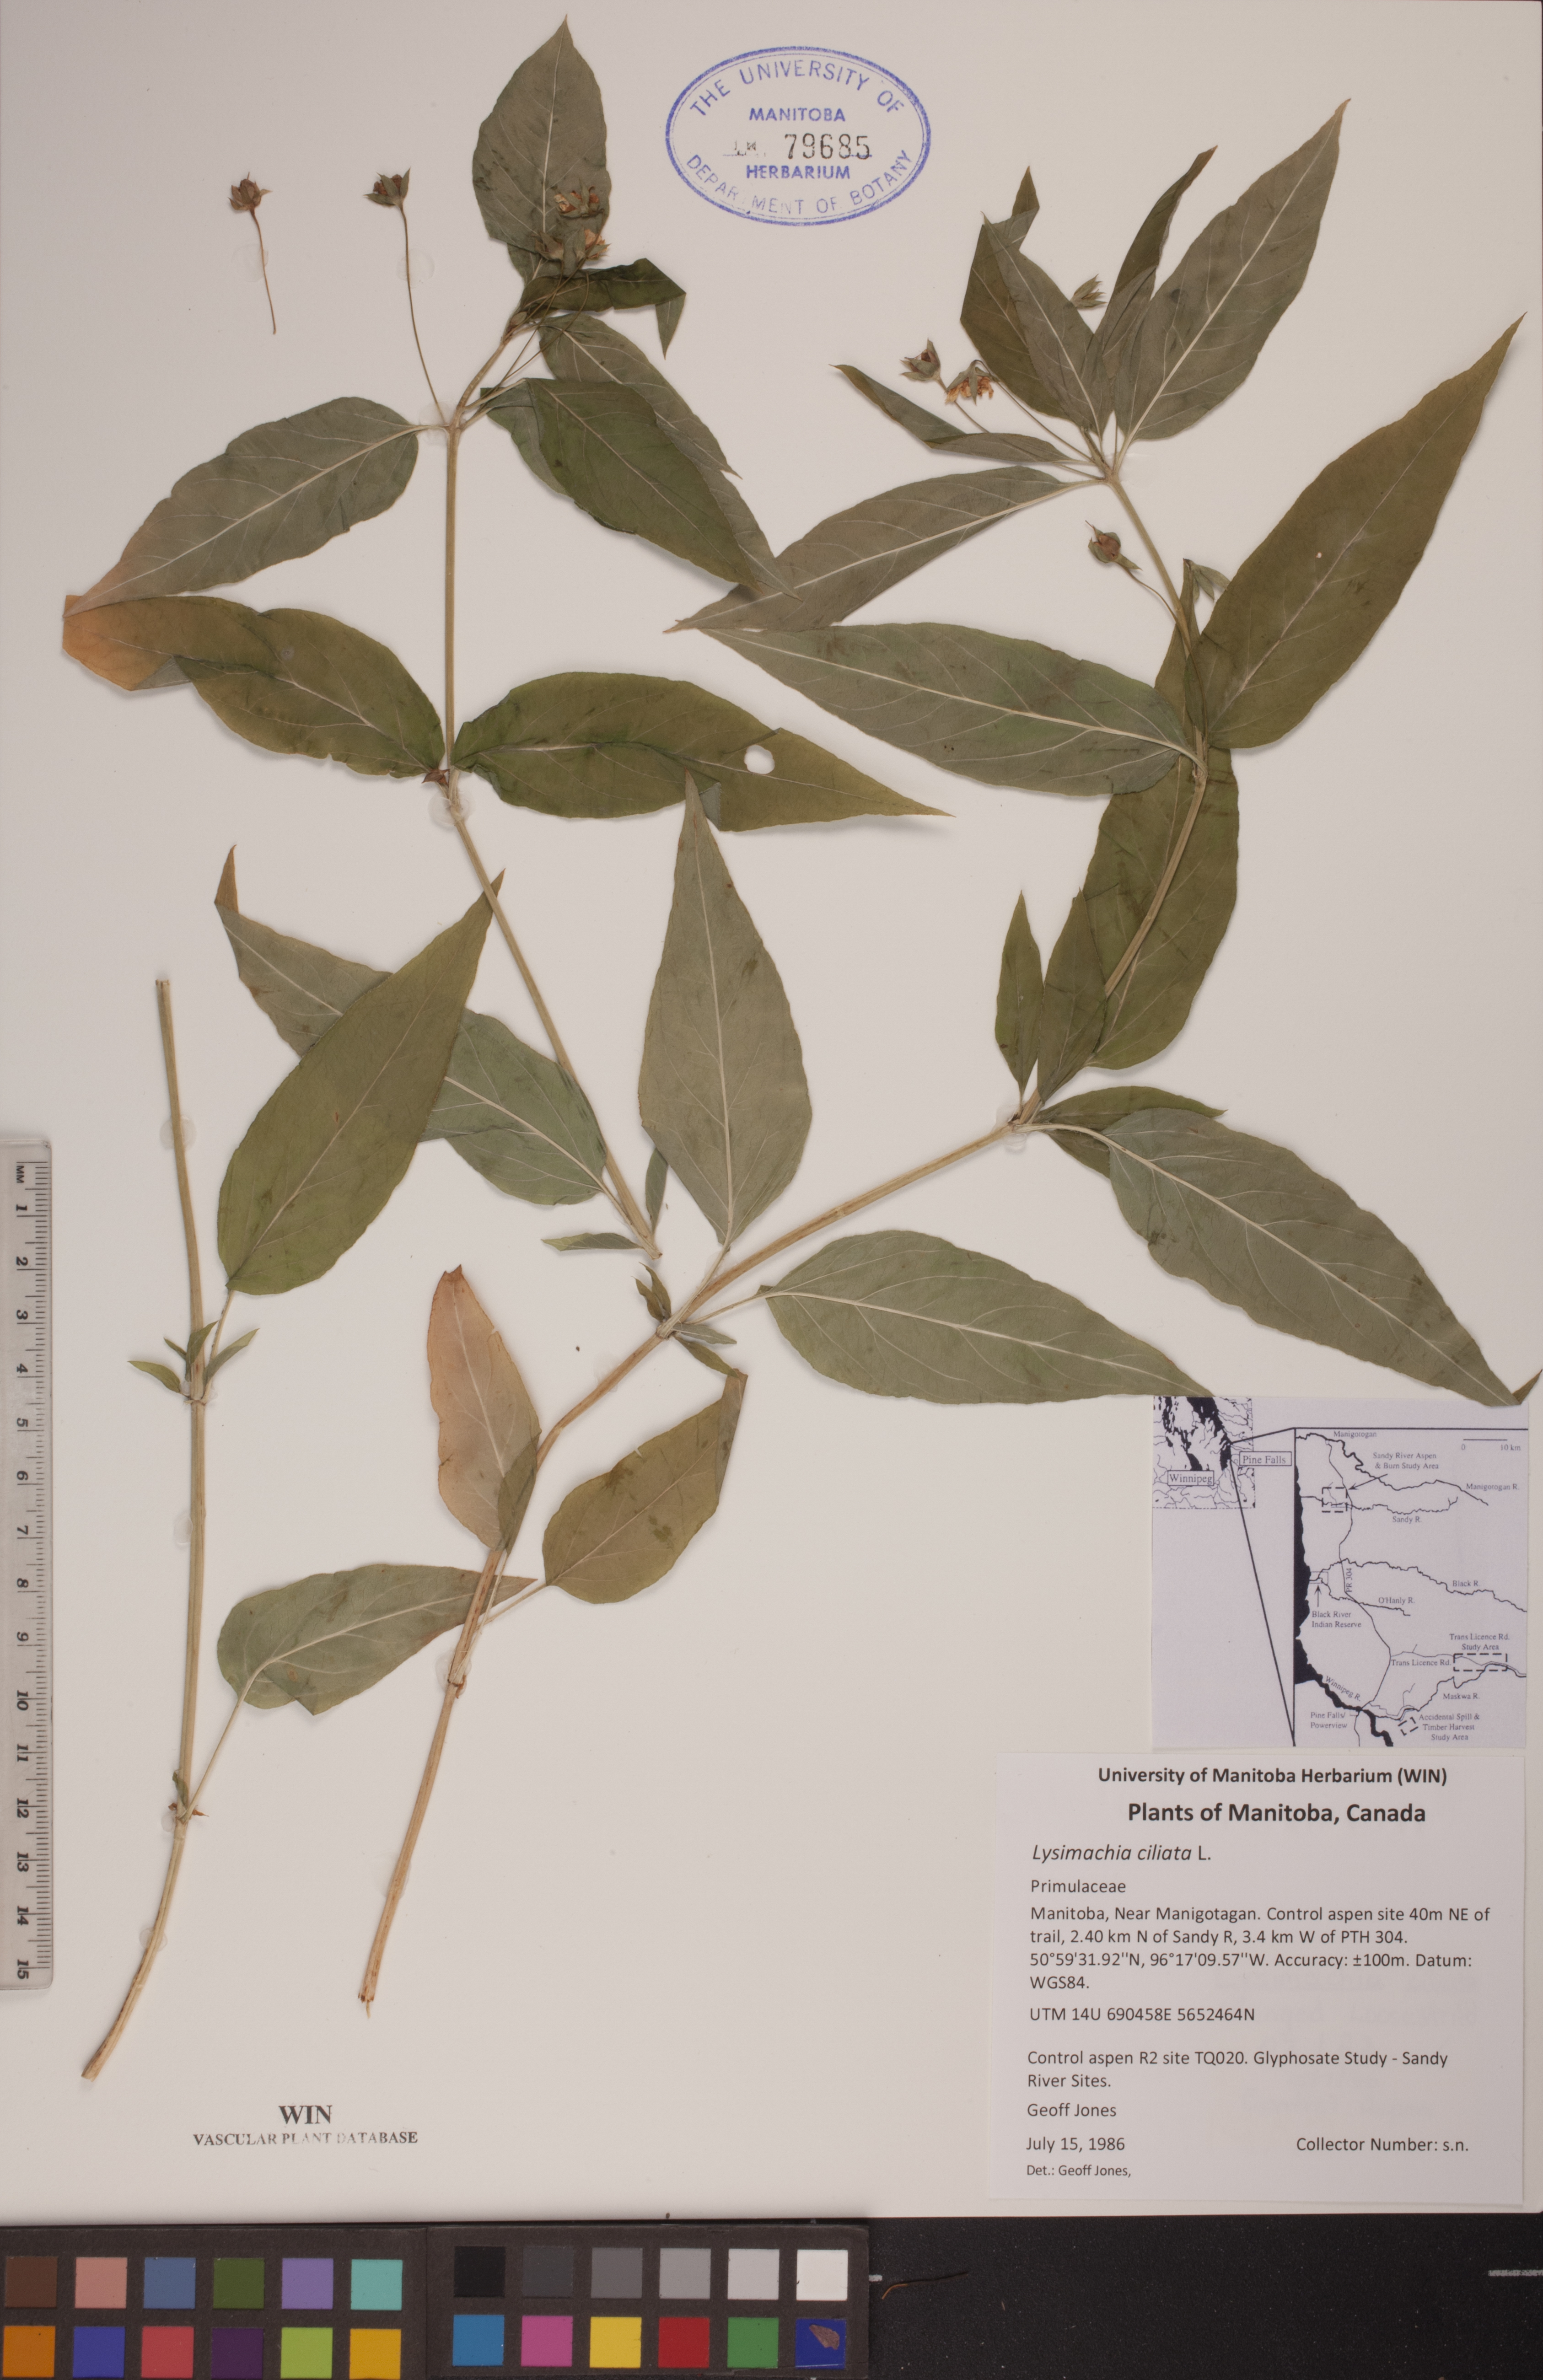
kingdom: Plantae
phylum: Tracheophyta
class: Magnoliopsida
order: Ericales
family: Primulaceae
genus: Lysimachia
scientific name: Lysimachia ciliata
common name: Fringed loosestrife
